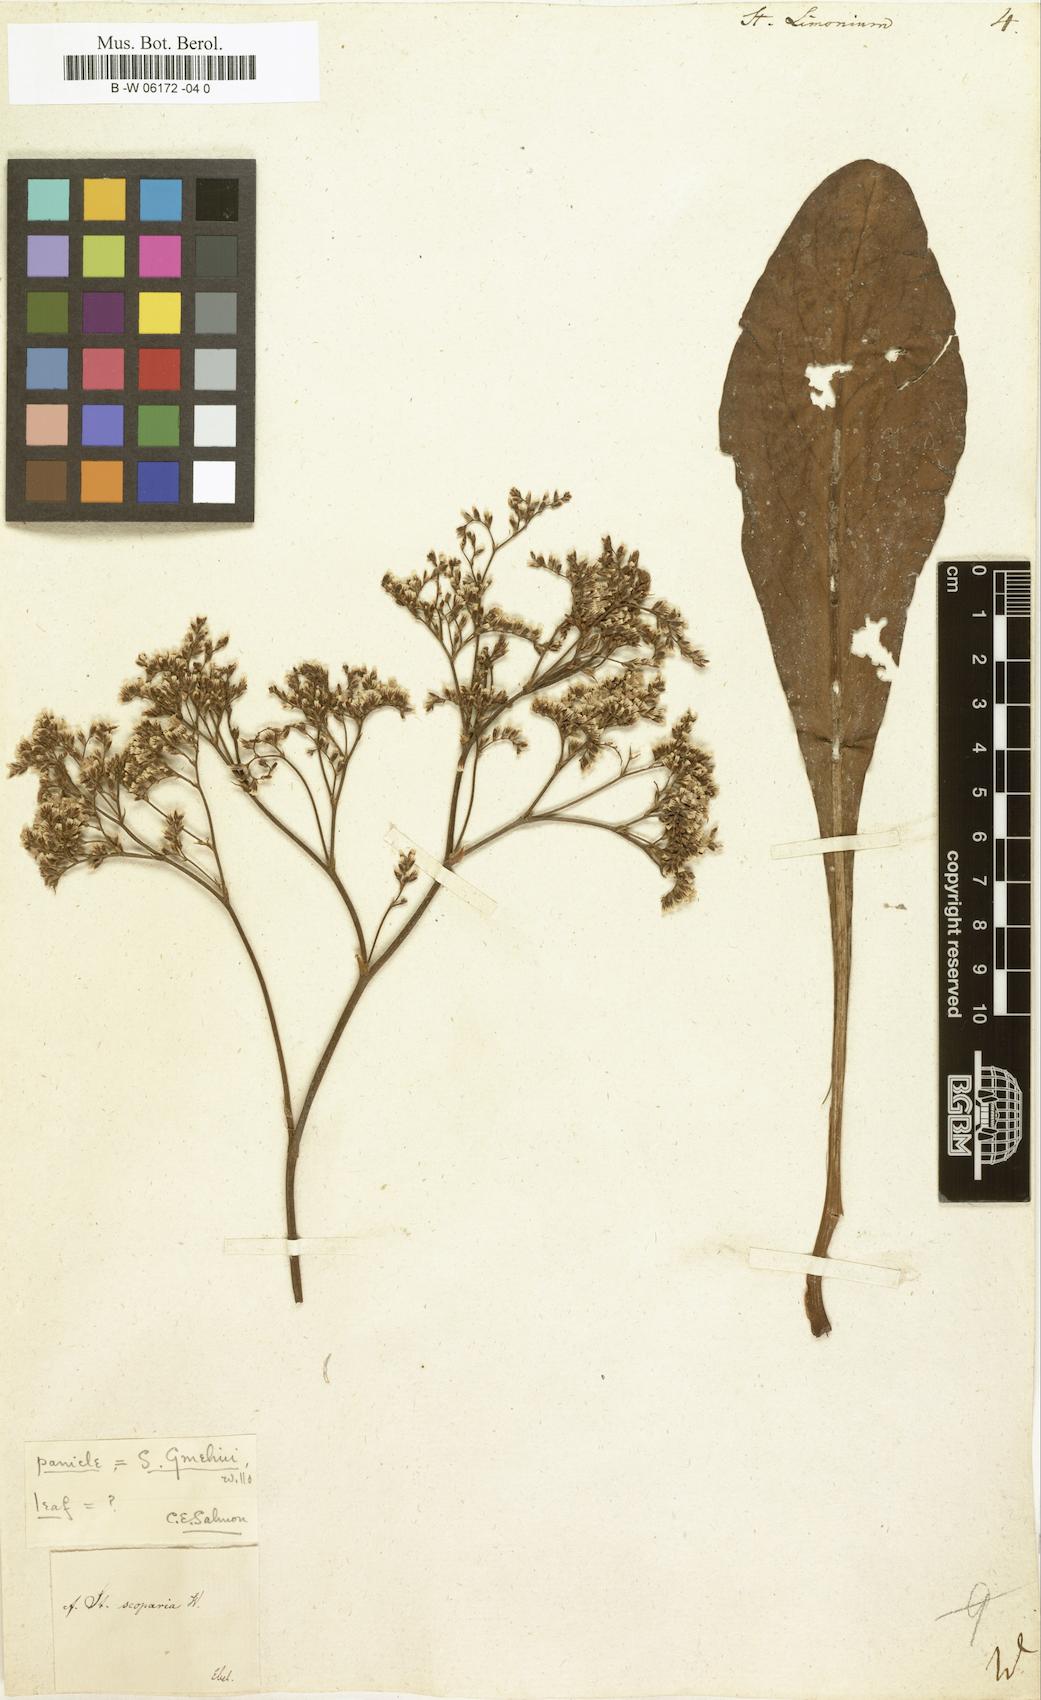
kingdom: Plantae
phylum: Tracheophyta
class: Magnoliopsida
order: Caryophyllales
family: Plumbaginaceae
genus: Limonium
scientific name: Limonium
